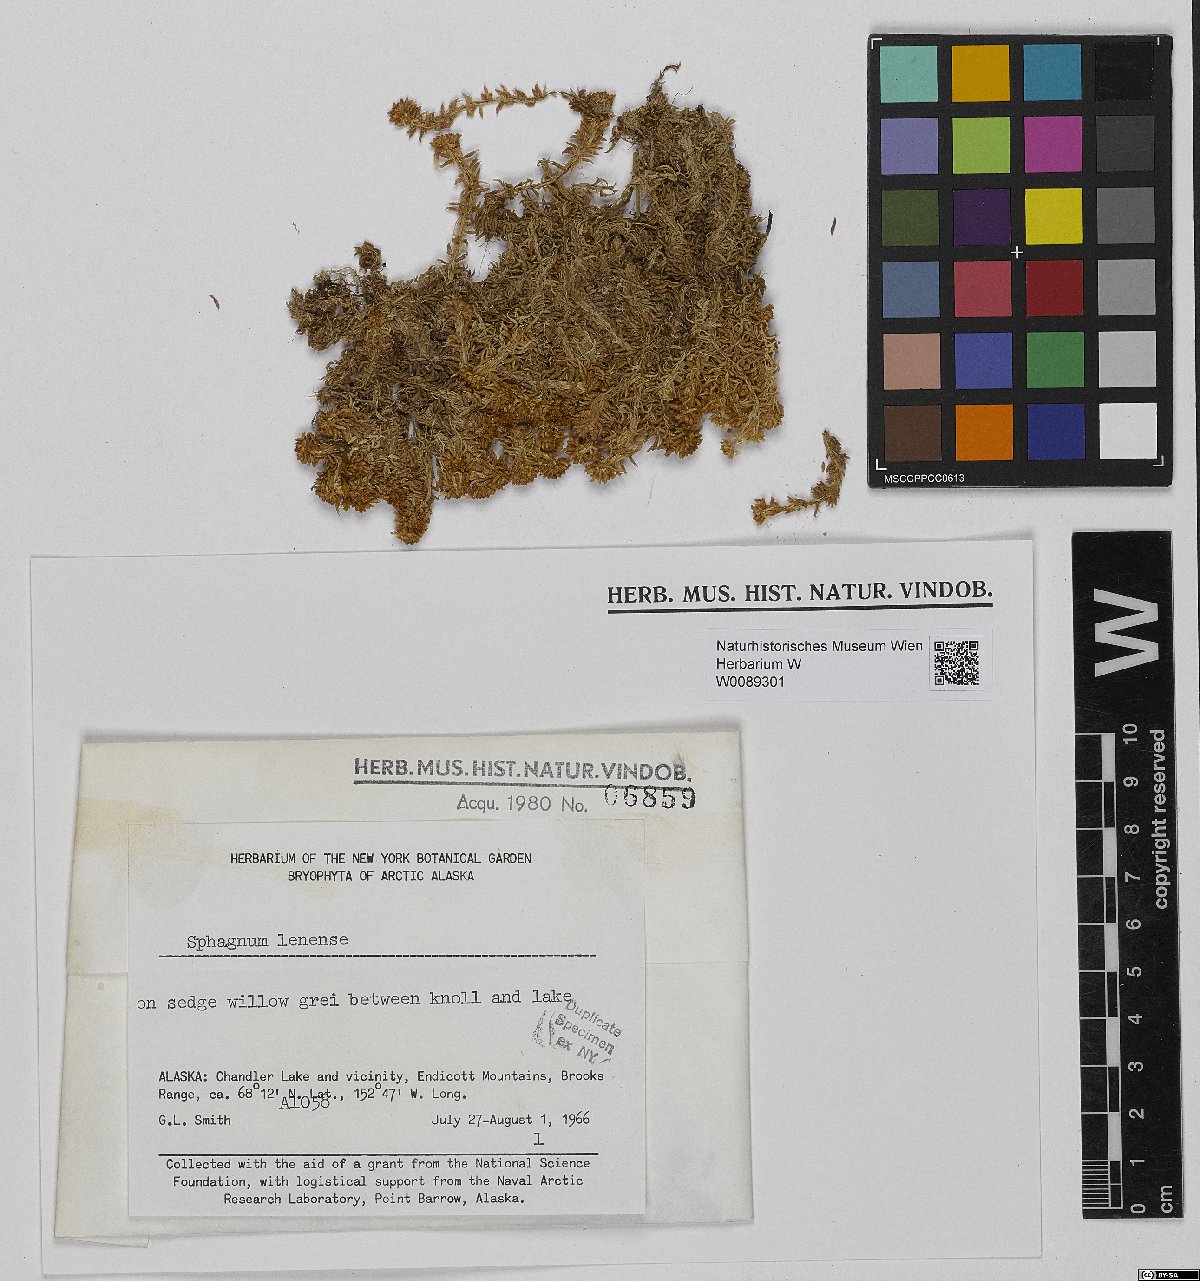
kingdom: Plantae
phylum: Bryophyta
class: Sphagnopsida
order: Sphagnales
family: Sphagnaceae
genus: Sphagnum
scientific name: Sphagnum lenense
